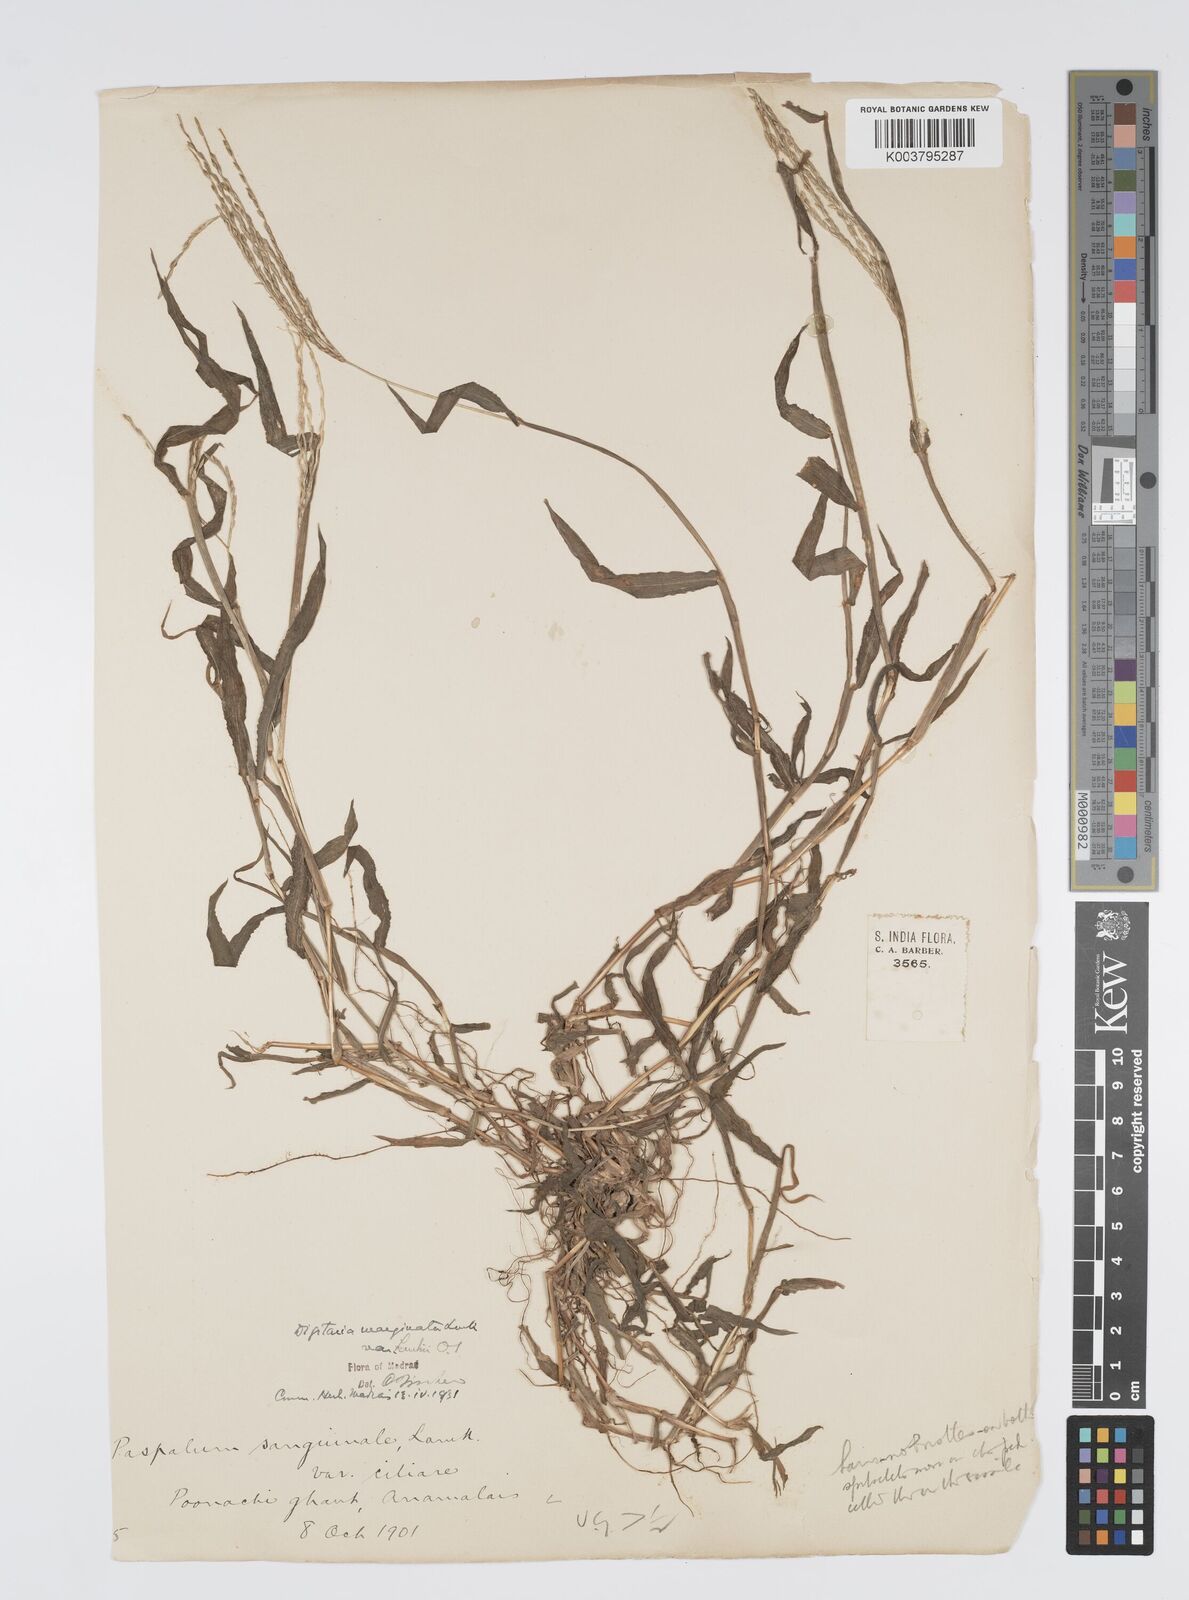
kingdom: Plantae
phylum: Tracheophyta
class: Liliopsida
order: Poales
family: Poaceae
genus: Digitaria
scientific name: Digitaria spec
